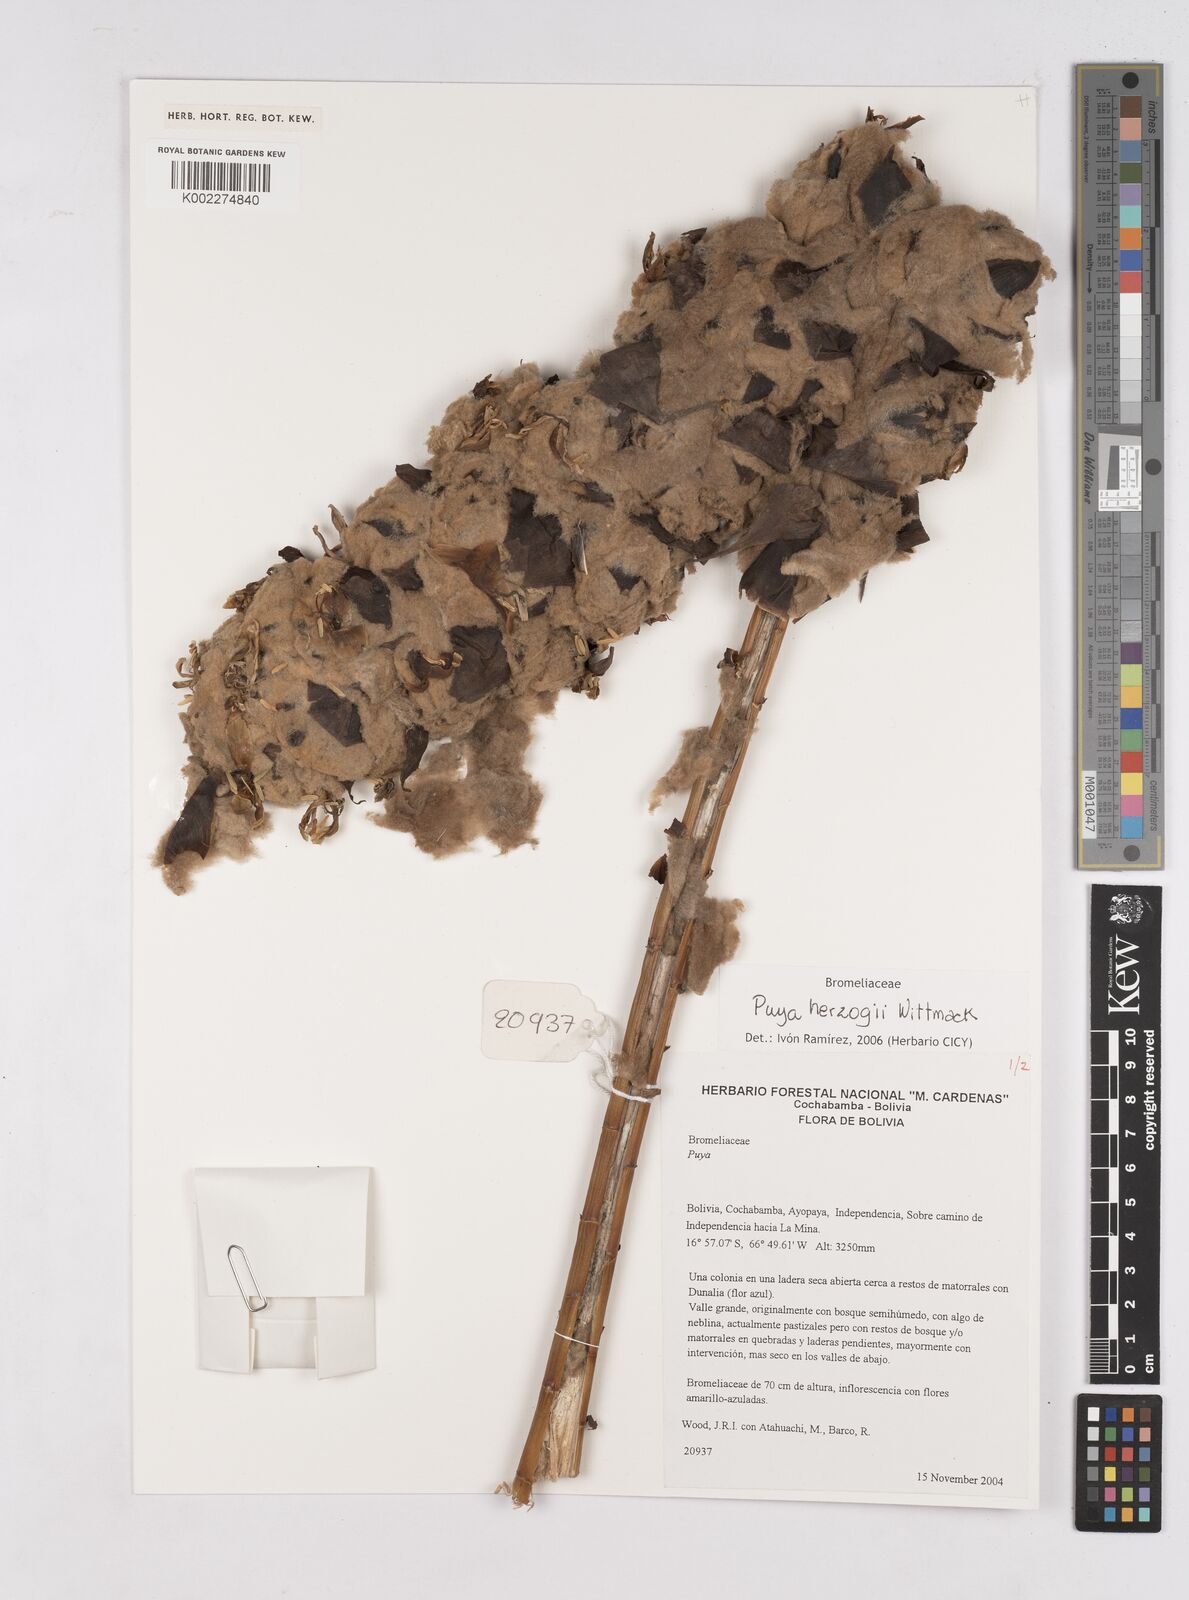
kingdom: Plantae
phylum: Tracheophyta
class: Liliopsida
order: Poales
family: Bromeliaceae
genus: Puya
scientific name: Puya herzogii
